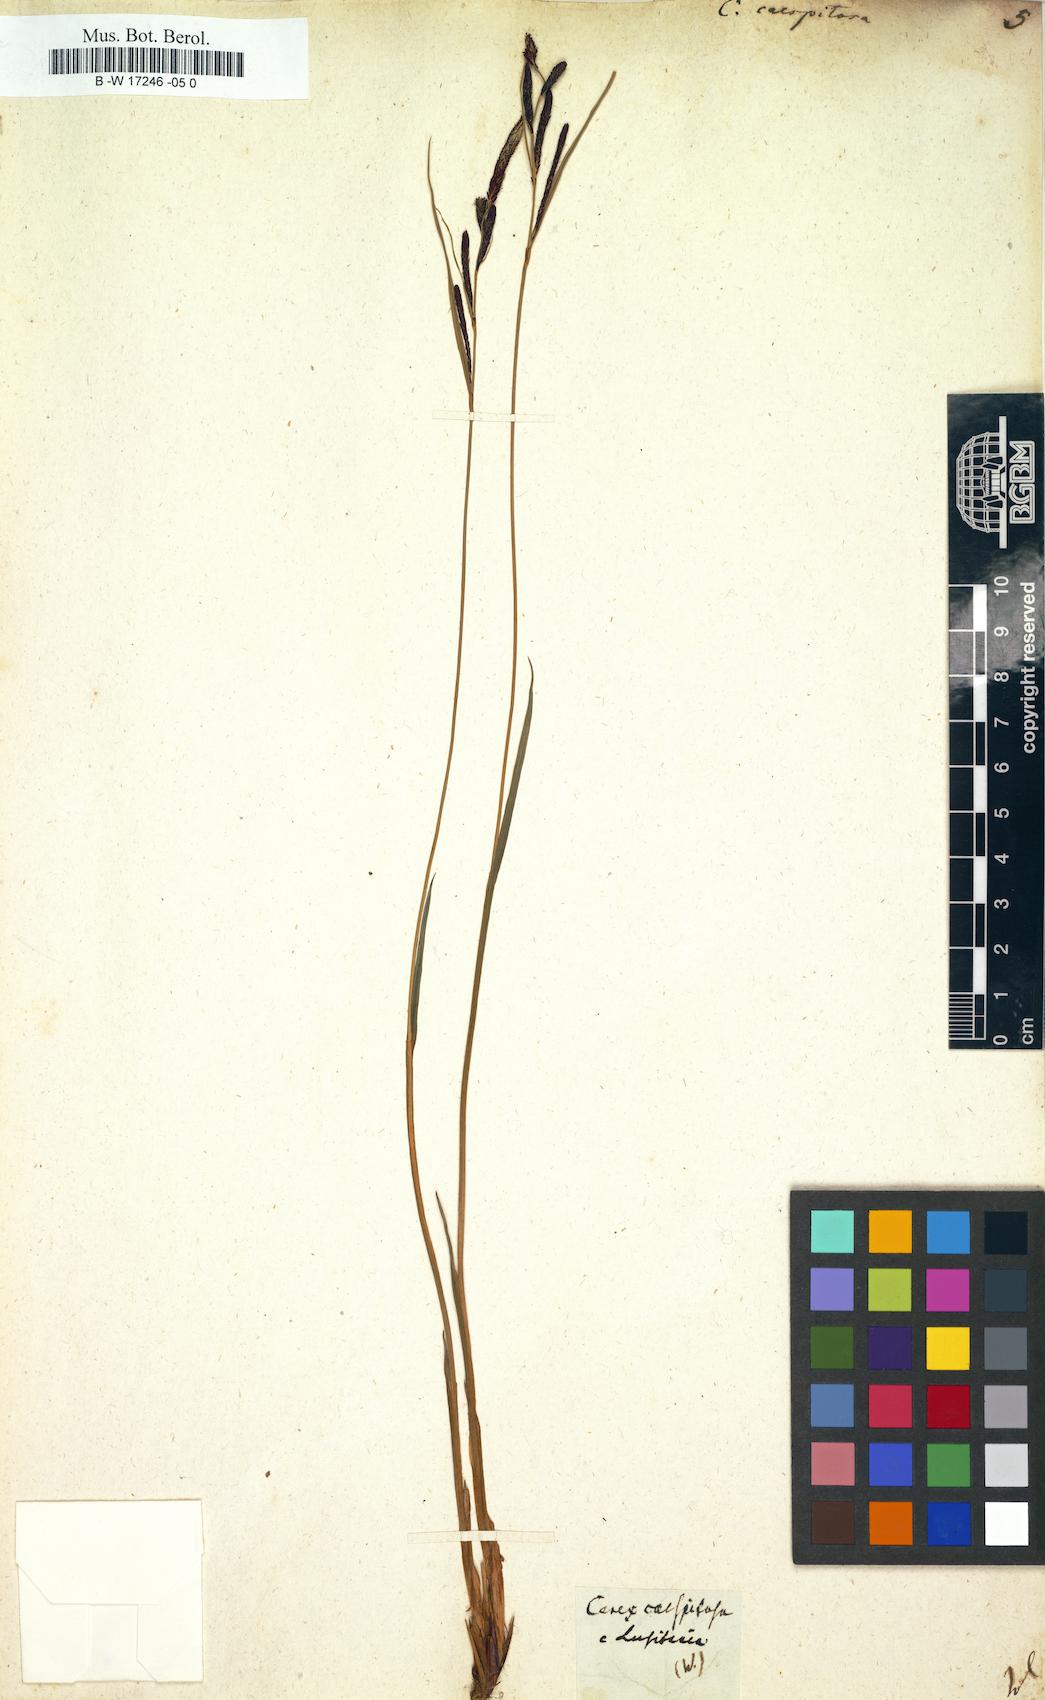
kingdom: Plantae
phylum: Tracheophyta
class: Liliopsida
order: Poales
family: Cyperaceae
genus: Carex
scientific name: Carex cespitosa
